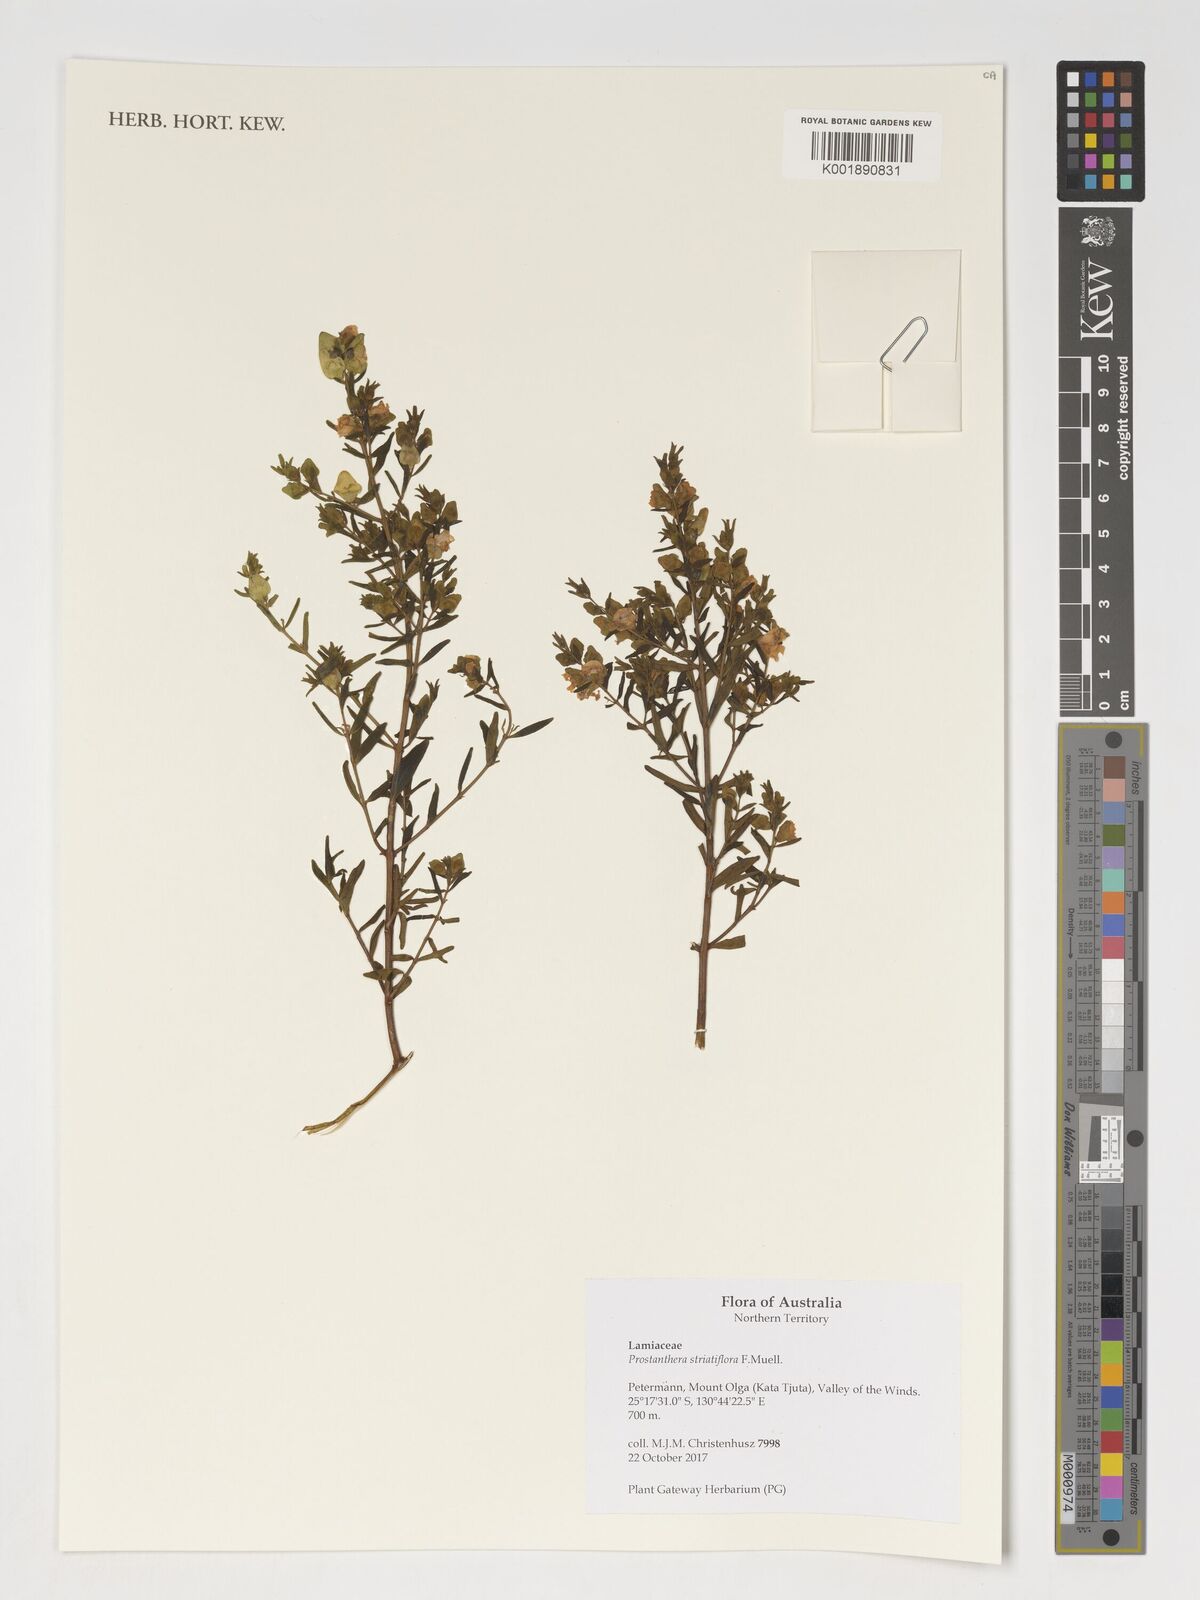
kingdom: Plantae
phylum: Tracheophyta
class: Magnoliopsida
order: Lamiales
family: Lamiaceae
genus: Prostanthera
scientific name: Prostanthera striatiflora
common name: Jockey's-cap
